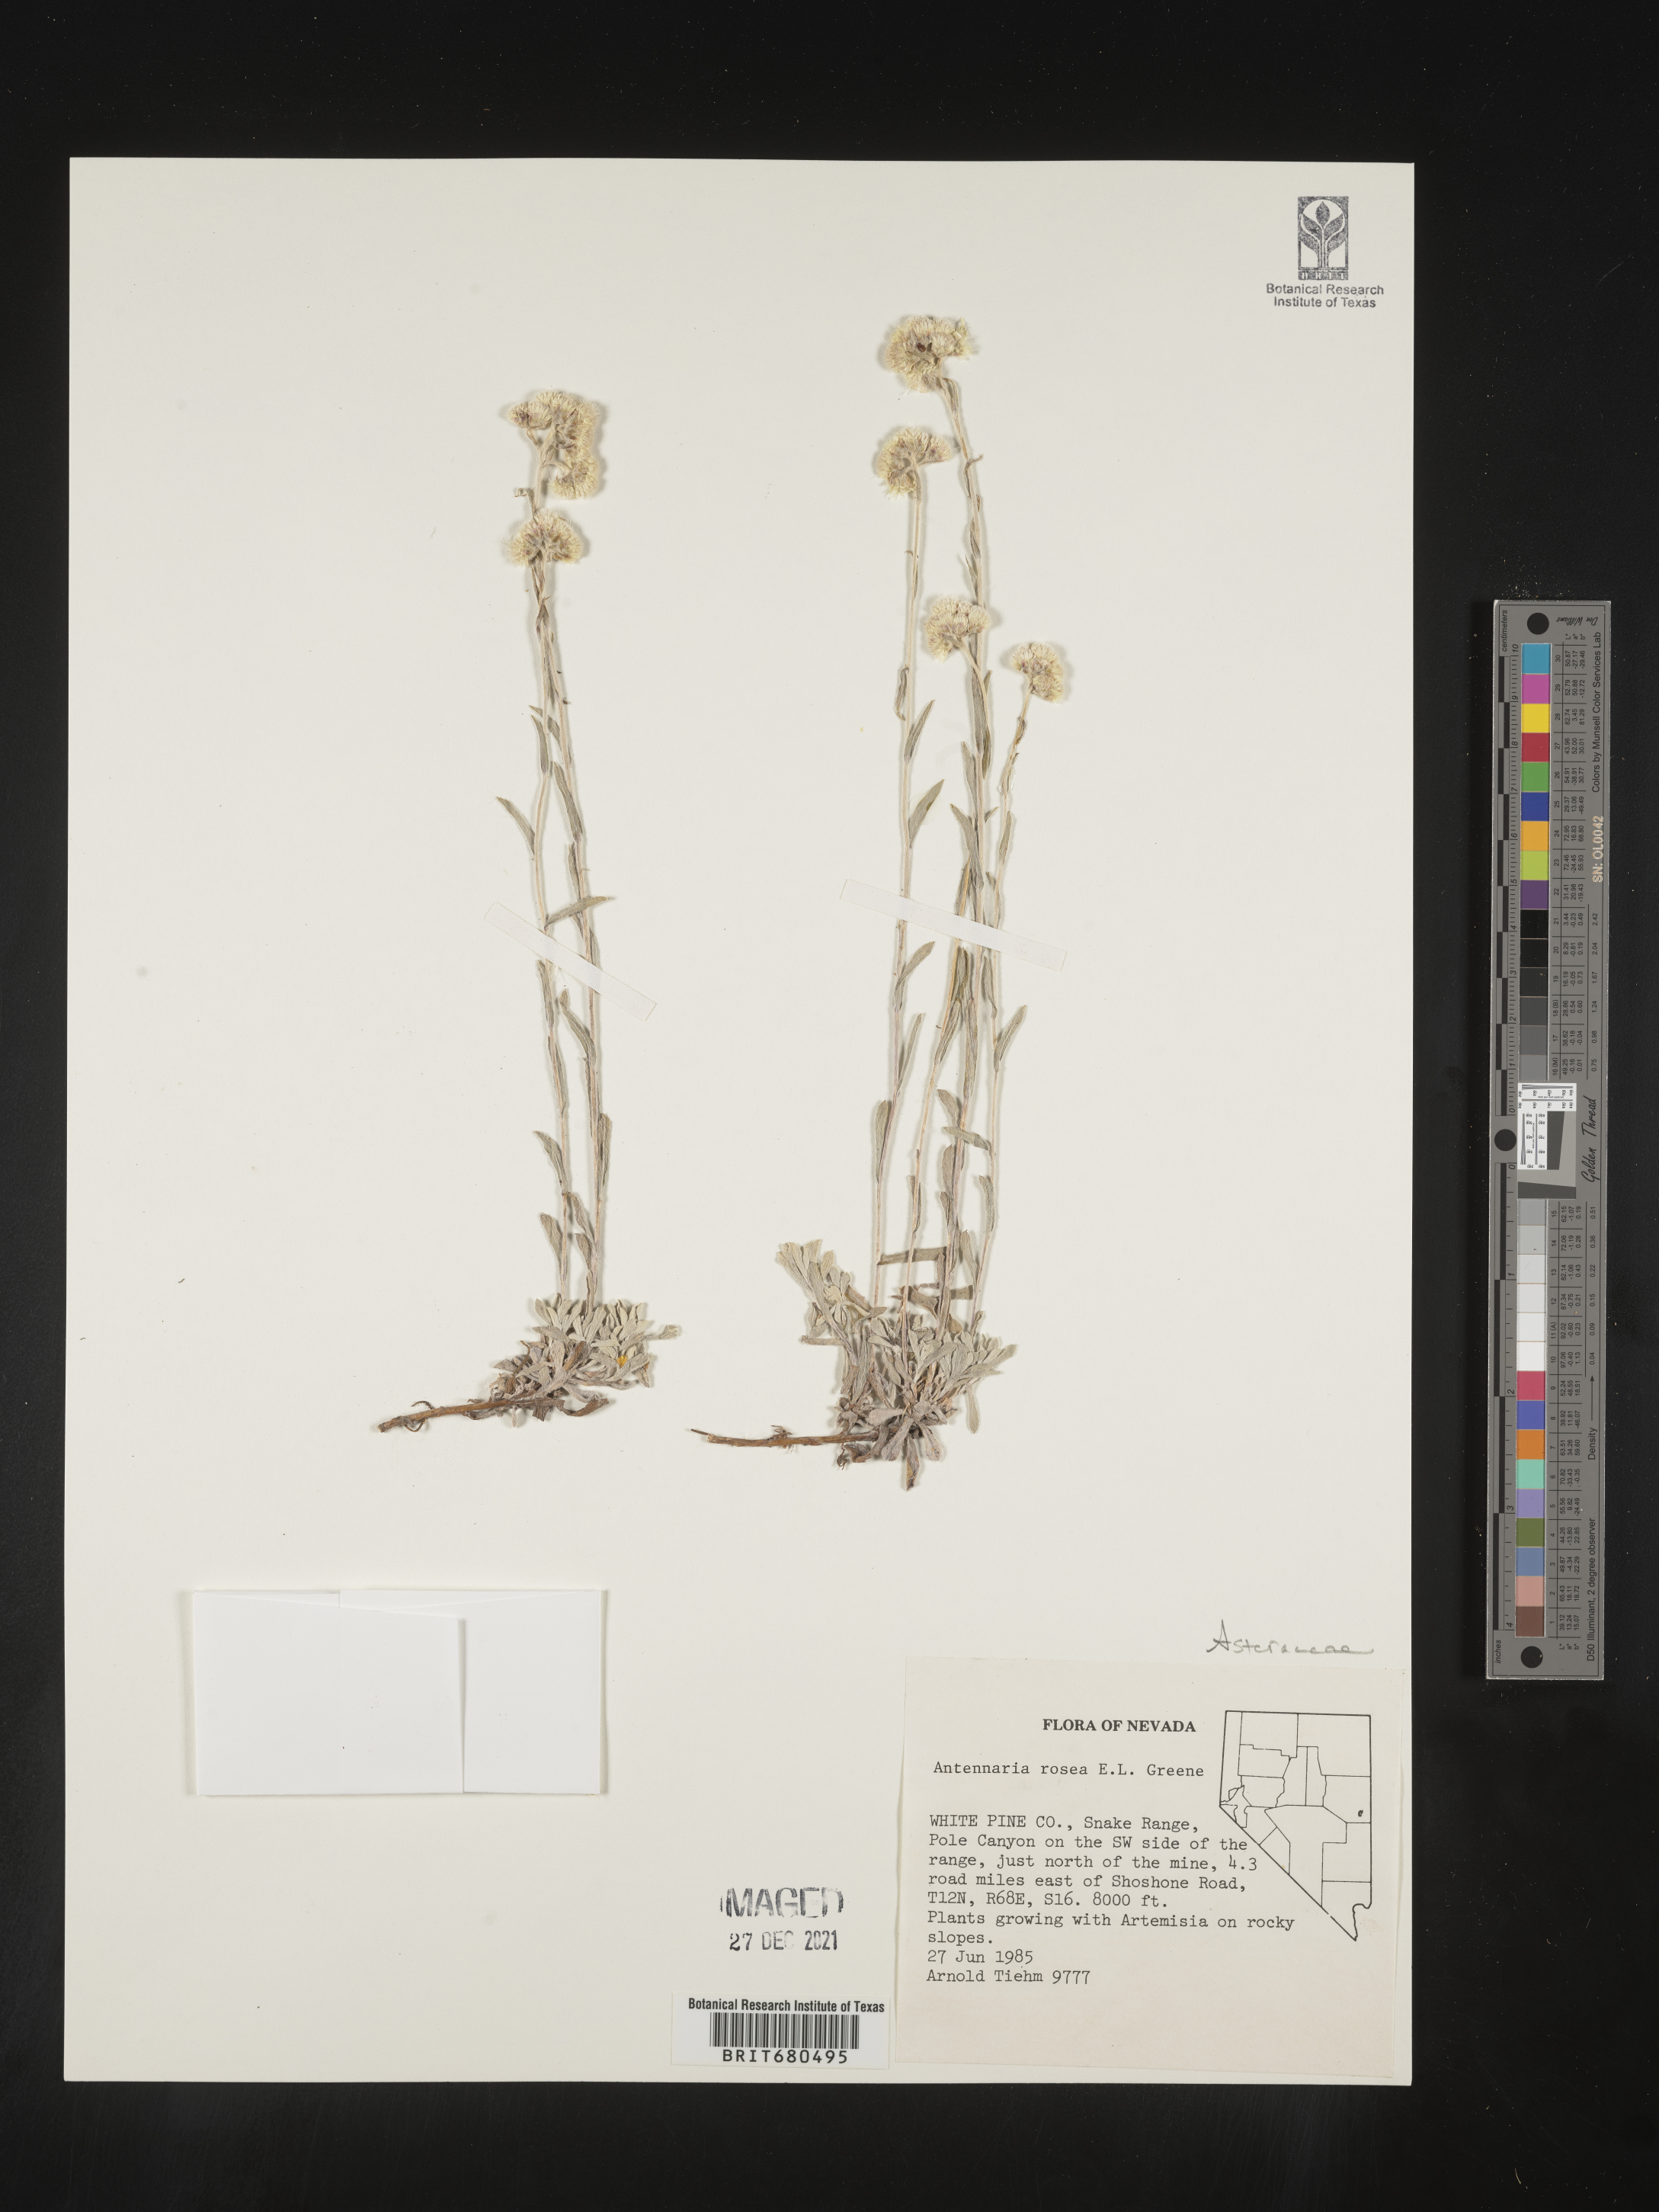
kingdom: Plantae
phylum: Tracheophyta
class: Magnoliopsida
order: Asterales
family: Asteraceae
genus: Antennaria
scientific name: Antennaria rosea
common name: Rosy pussytoes
